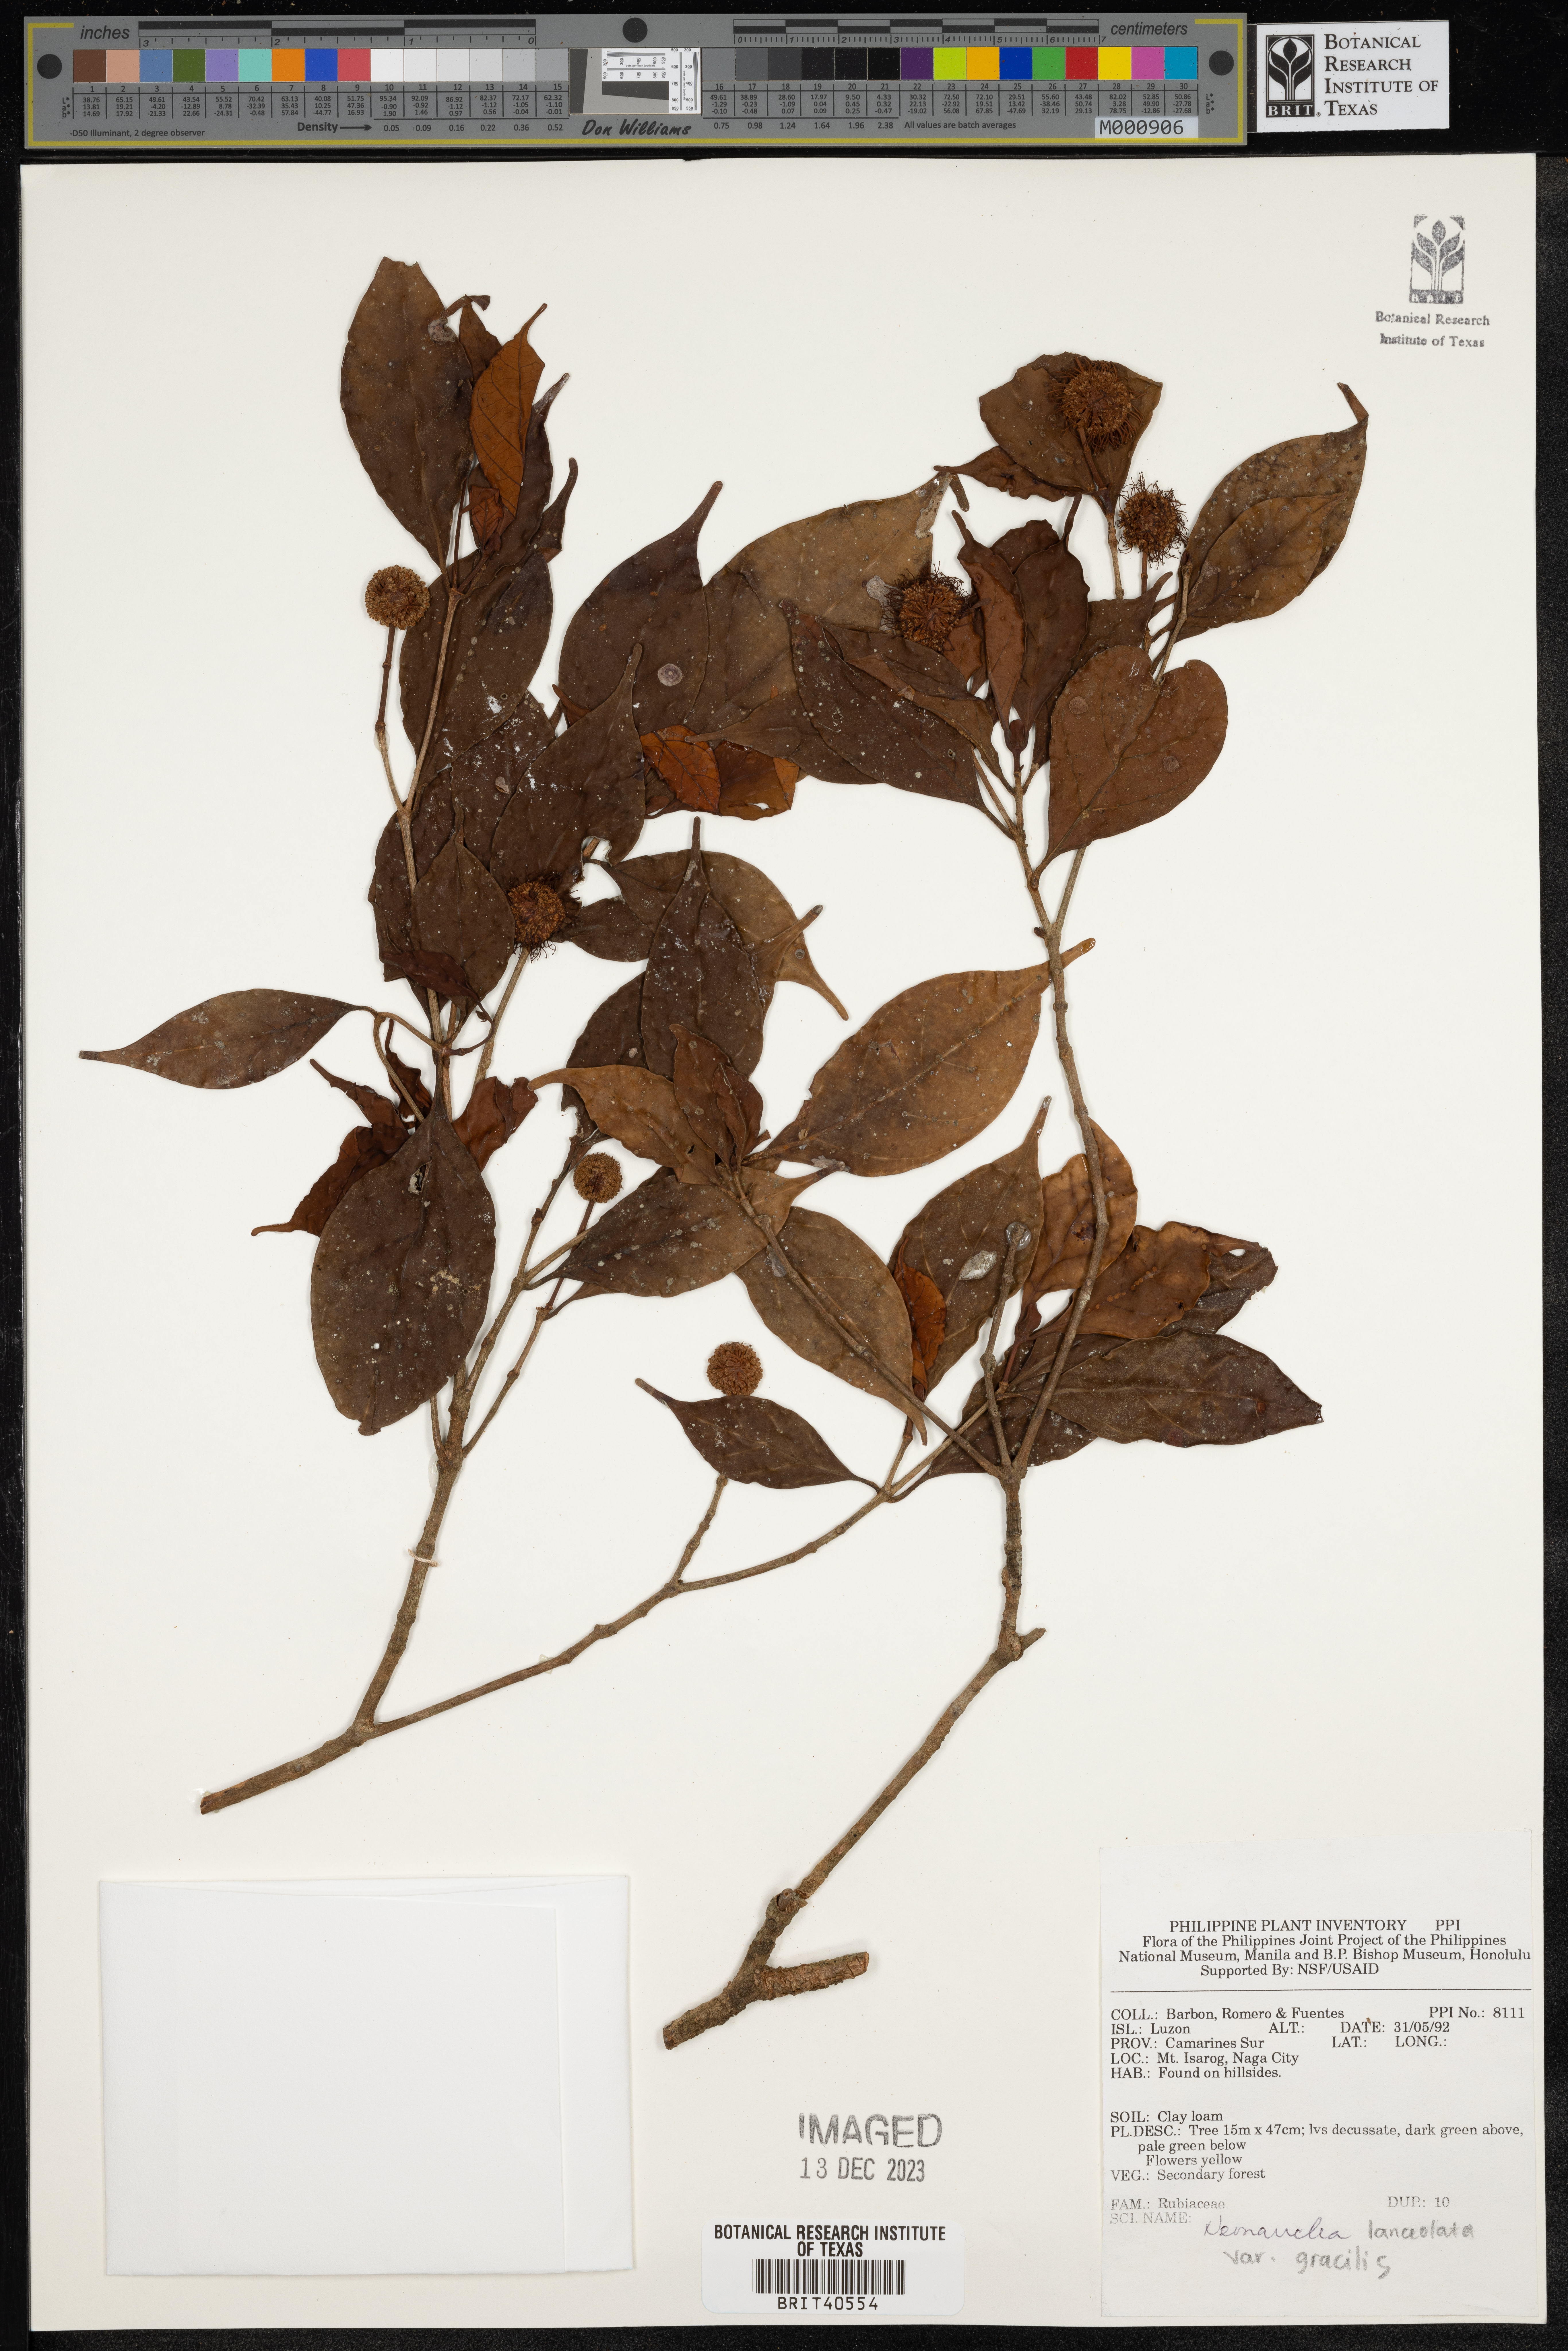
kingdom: Plantae
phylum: Tracheophyta
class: Magnoliopsida
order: Gentianales
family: Rubiaceae
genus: Neonauclea
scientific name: Neonauclea lanceolata
